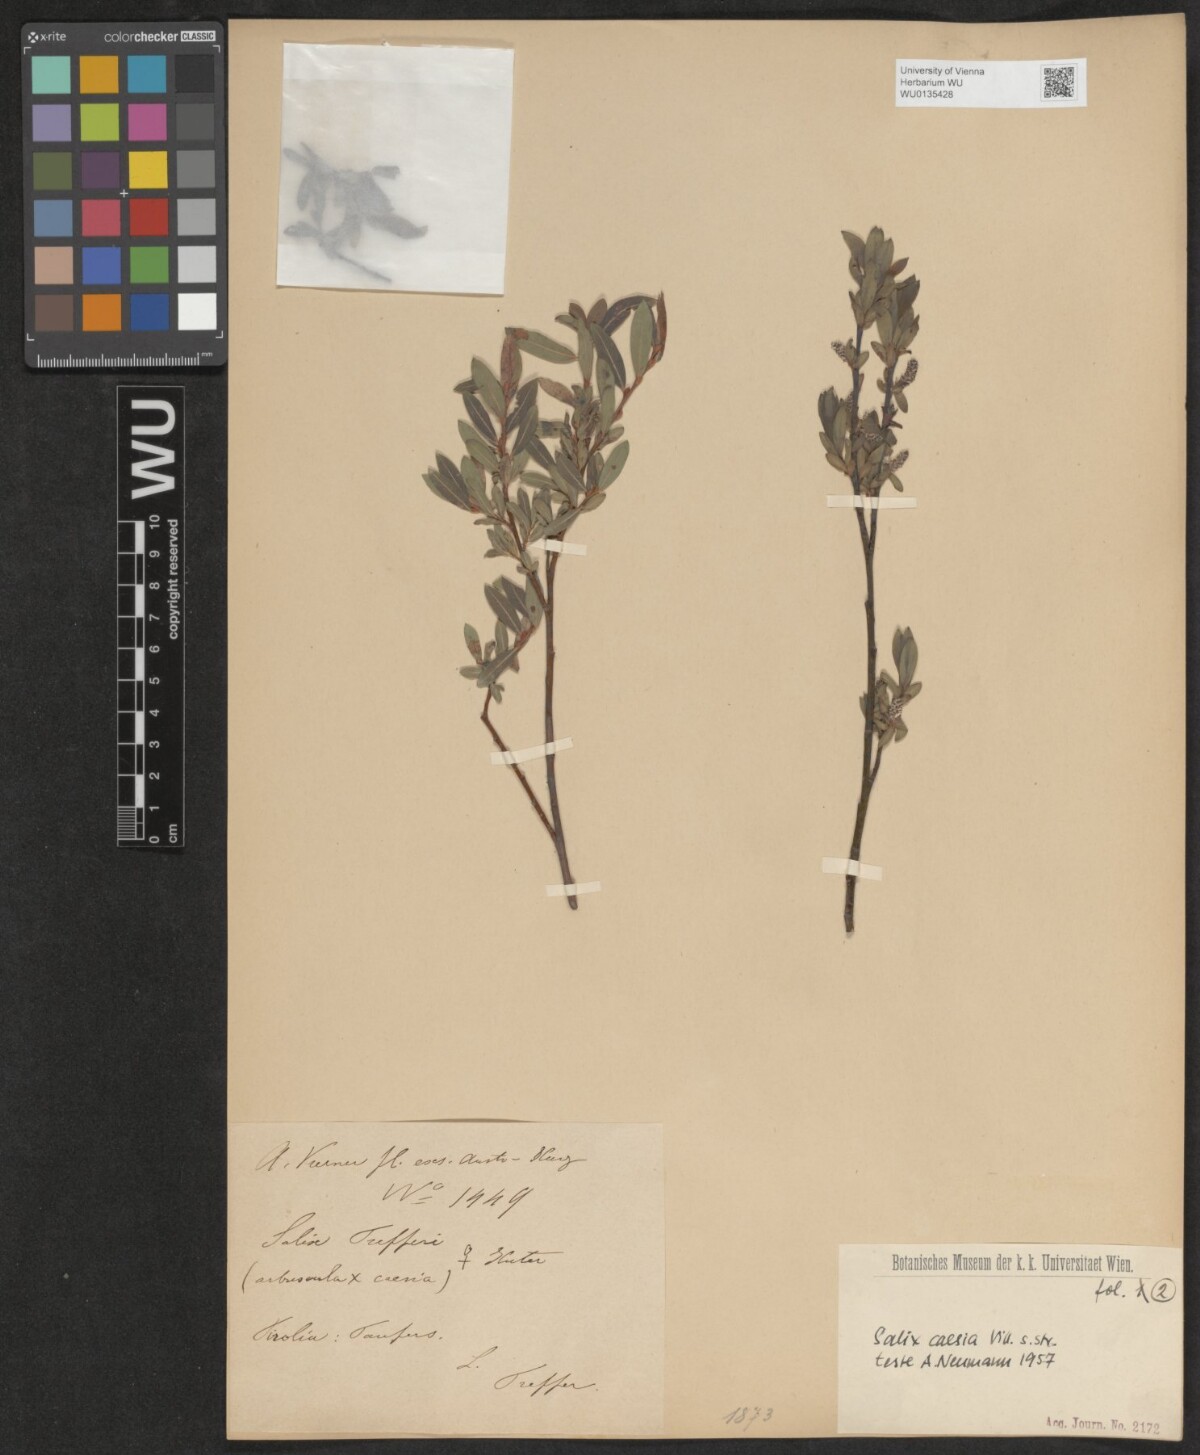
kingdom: Plantae
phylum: Tracheophyta
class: Magnoliopsida
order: Malpighiales
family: Salicaceae
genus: Salix
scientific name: Salix caesia
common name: Blue willow
